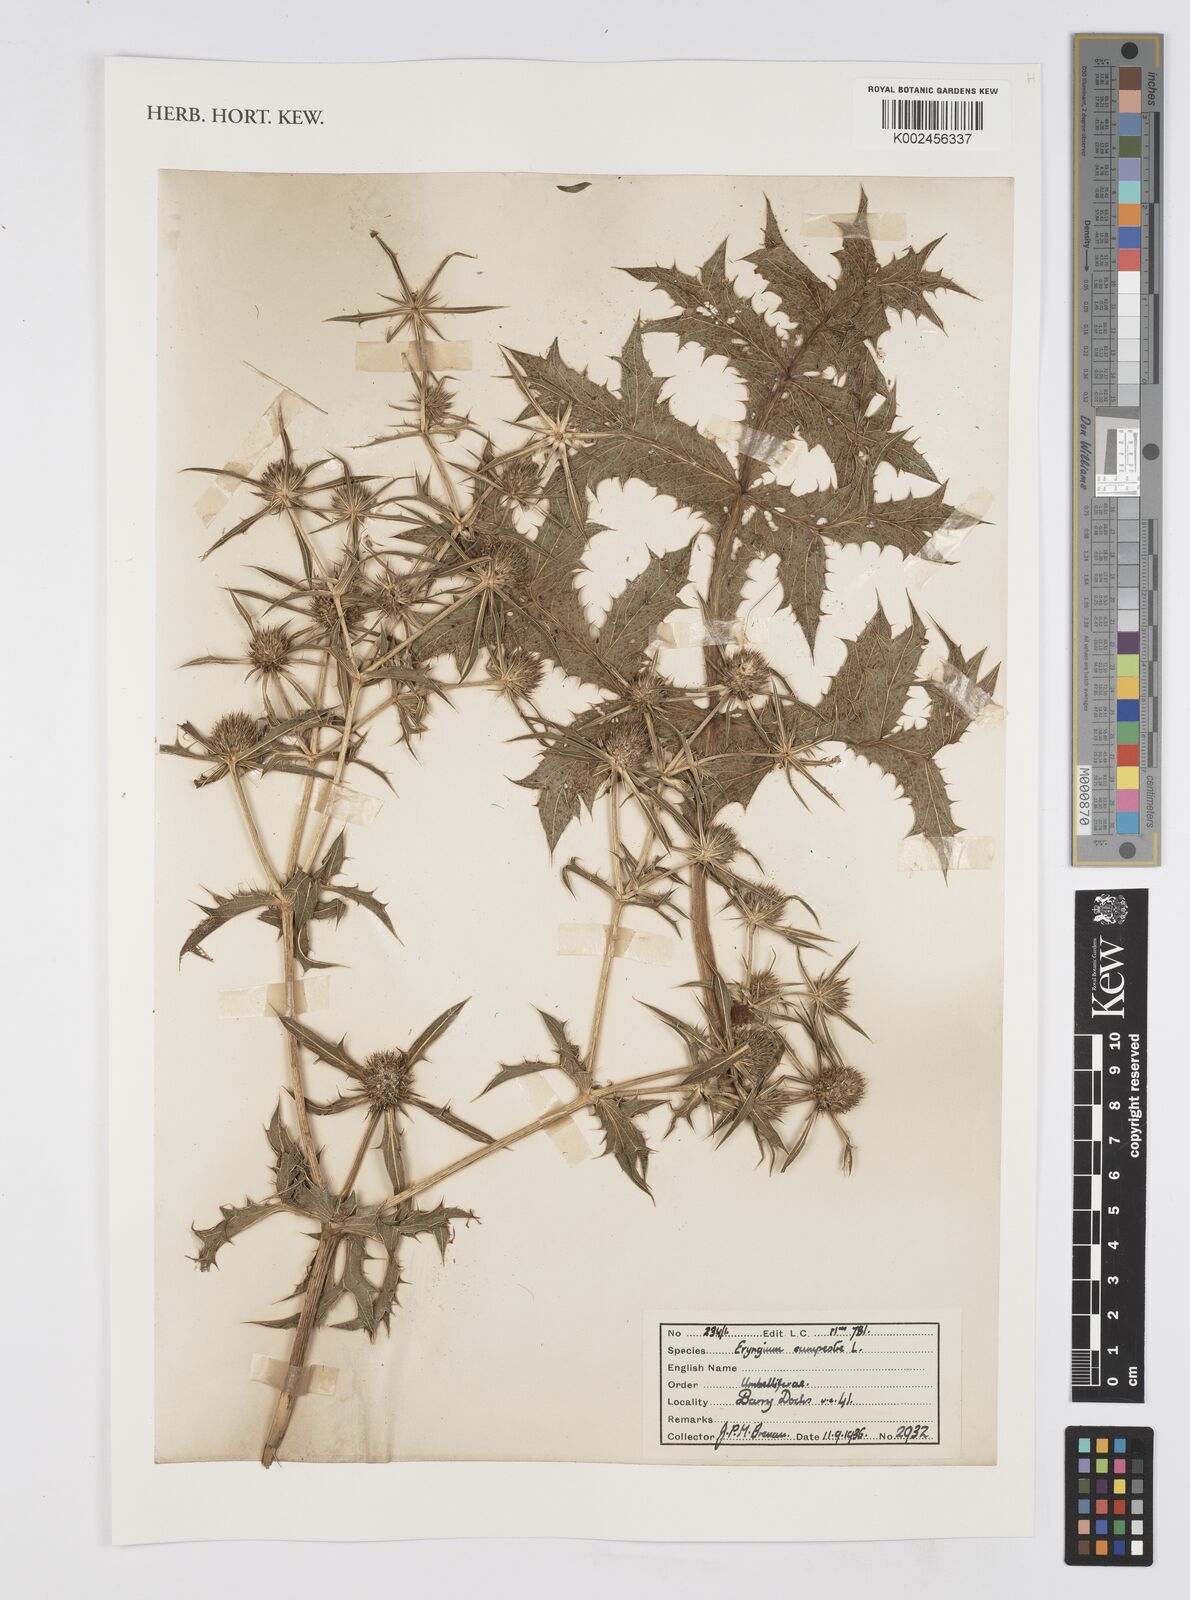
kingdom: Plantae
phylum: Tracheophyta
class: Magnoliopsida
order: Apiales
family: Apiaceae
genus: Eryngium
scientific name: Eryngium campestre
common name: Field eryngo
